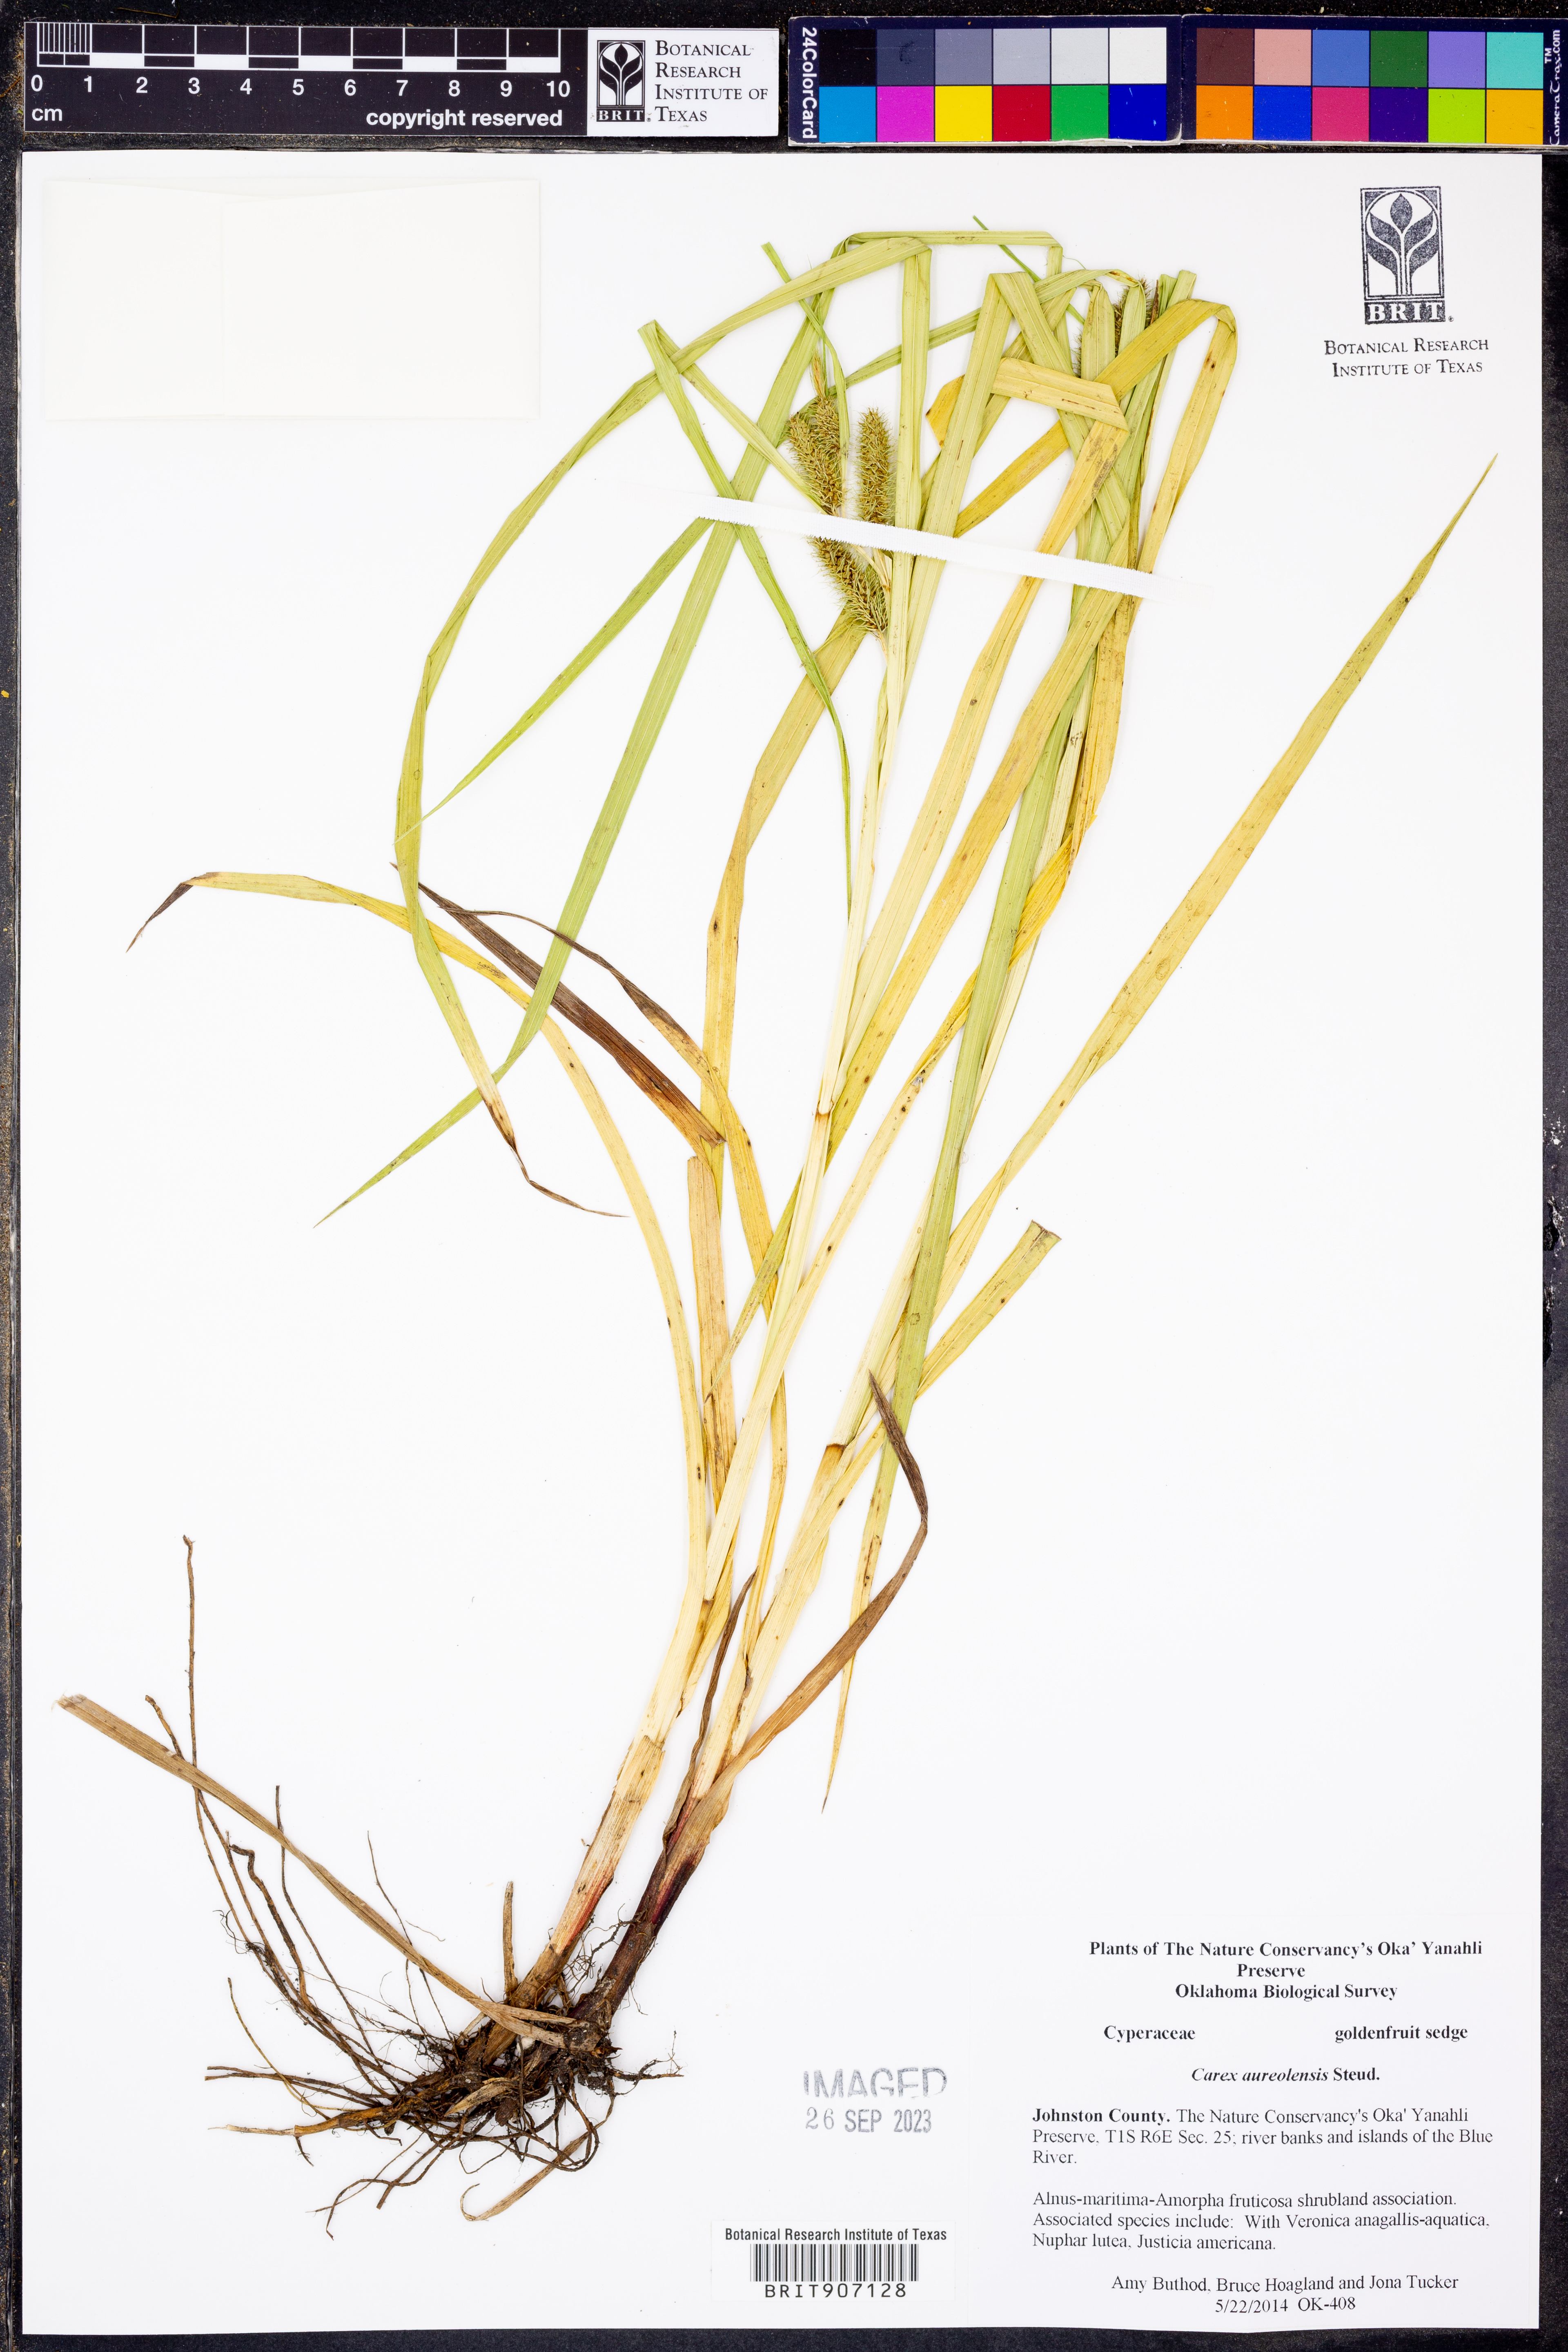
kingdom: Plantae
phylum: Tracheophyta
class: Liliopsida
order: Poales
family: Cyperaceae
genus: Carex
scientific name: Carex aureolensis
